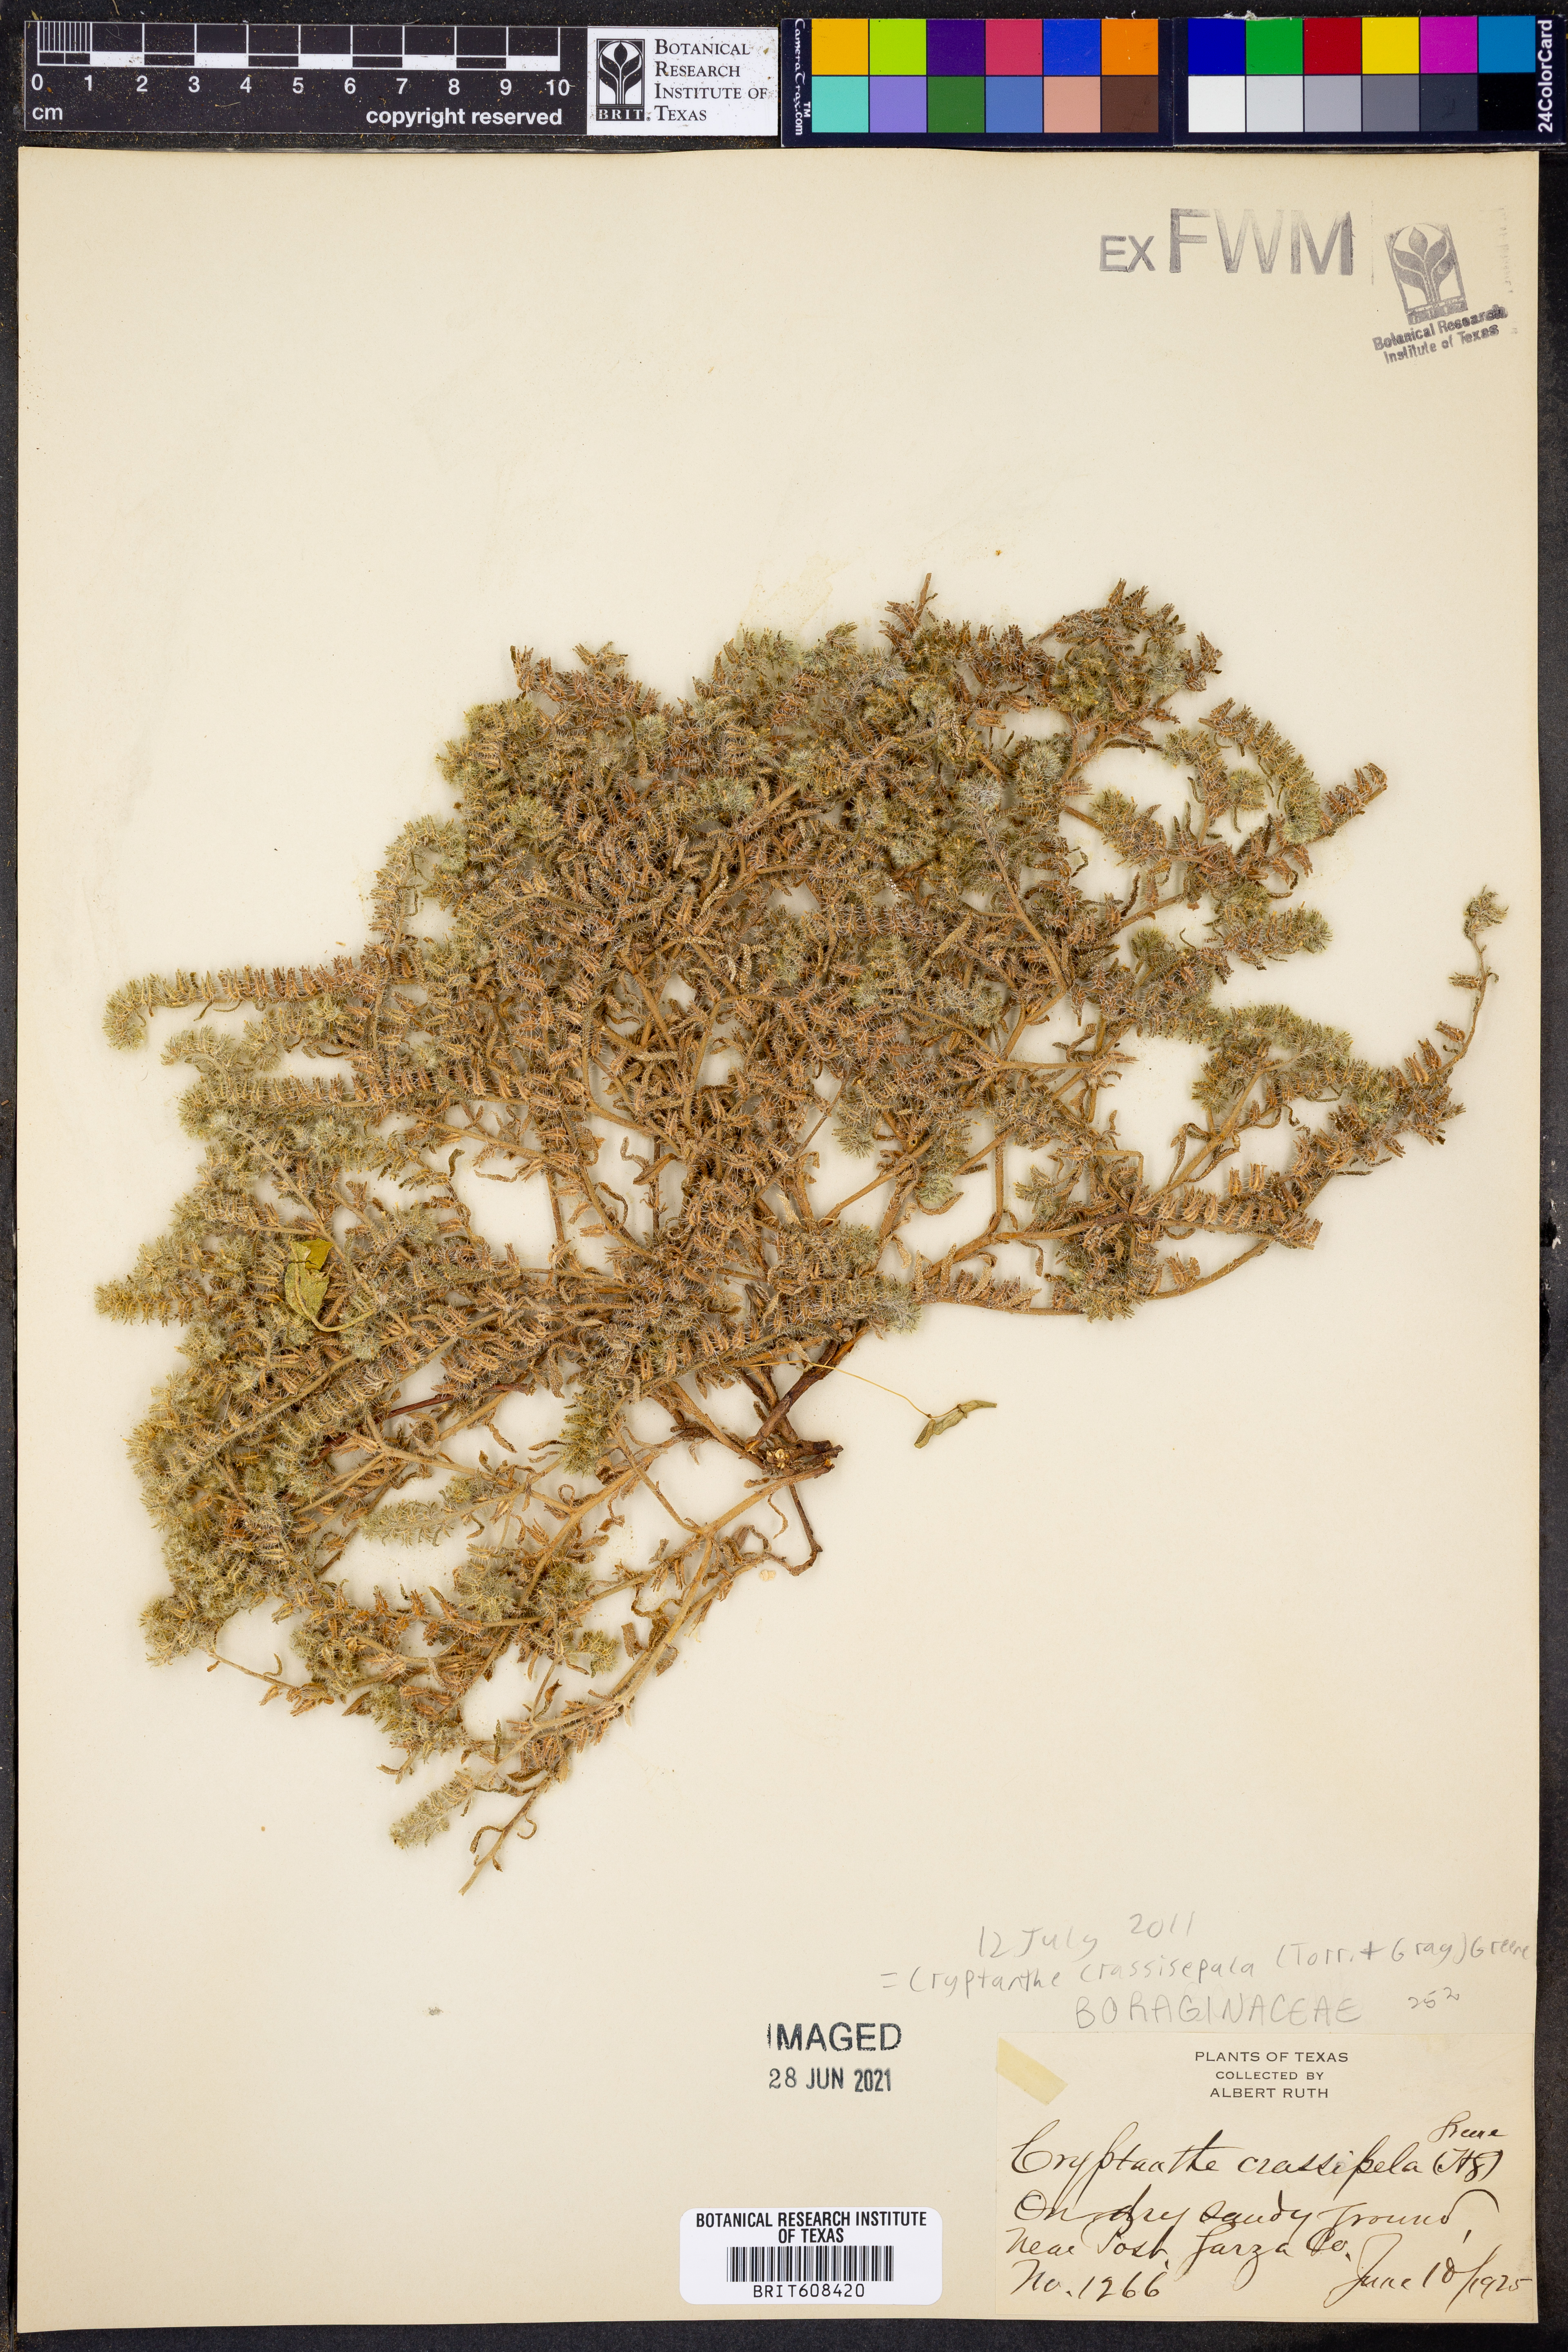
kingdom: Plantae
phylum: Tracheophyta
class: Magnoliopsida
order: Boraginales
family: Boraginaceae
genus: Cryptantha
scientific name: Cryptantha crassisepala
